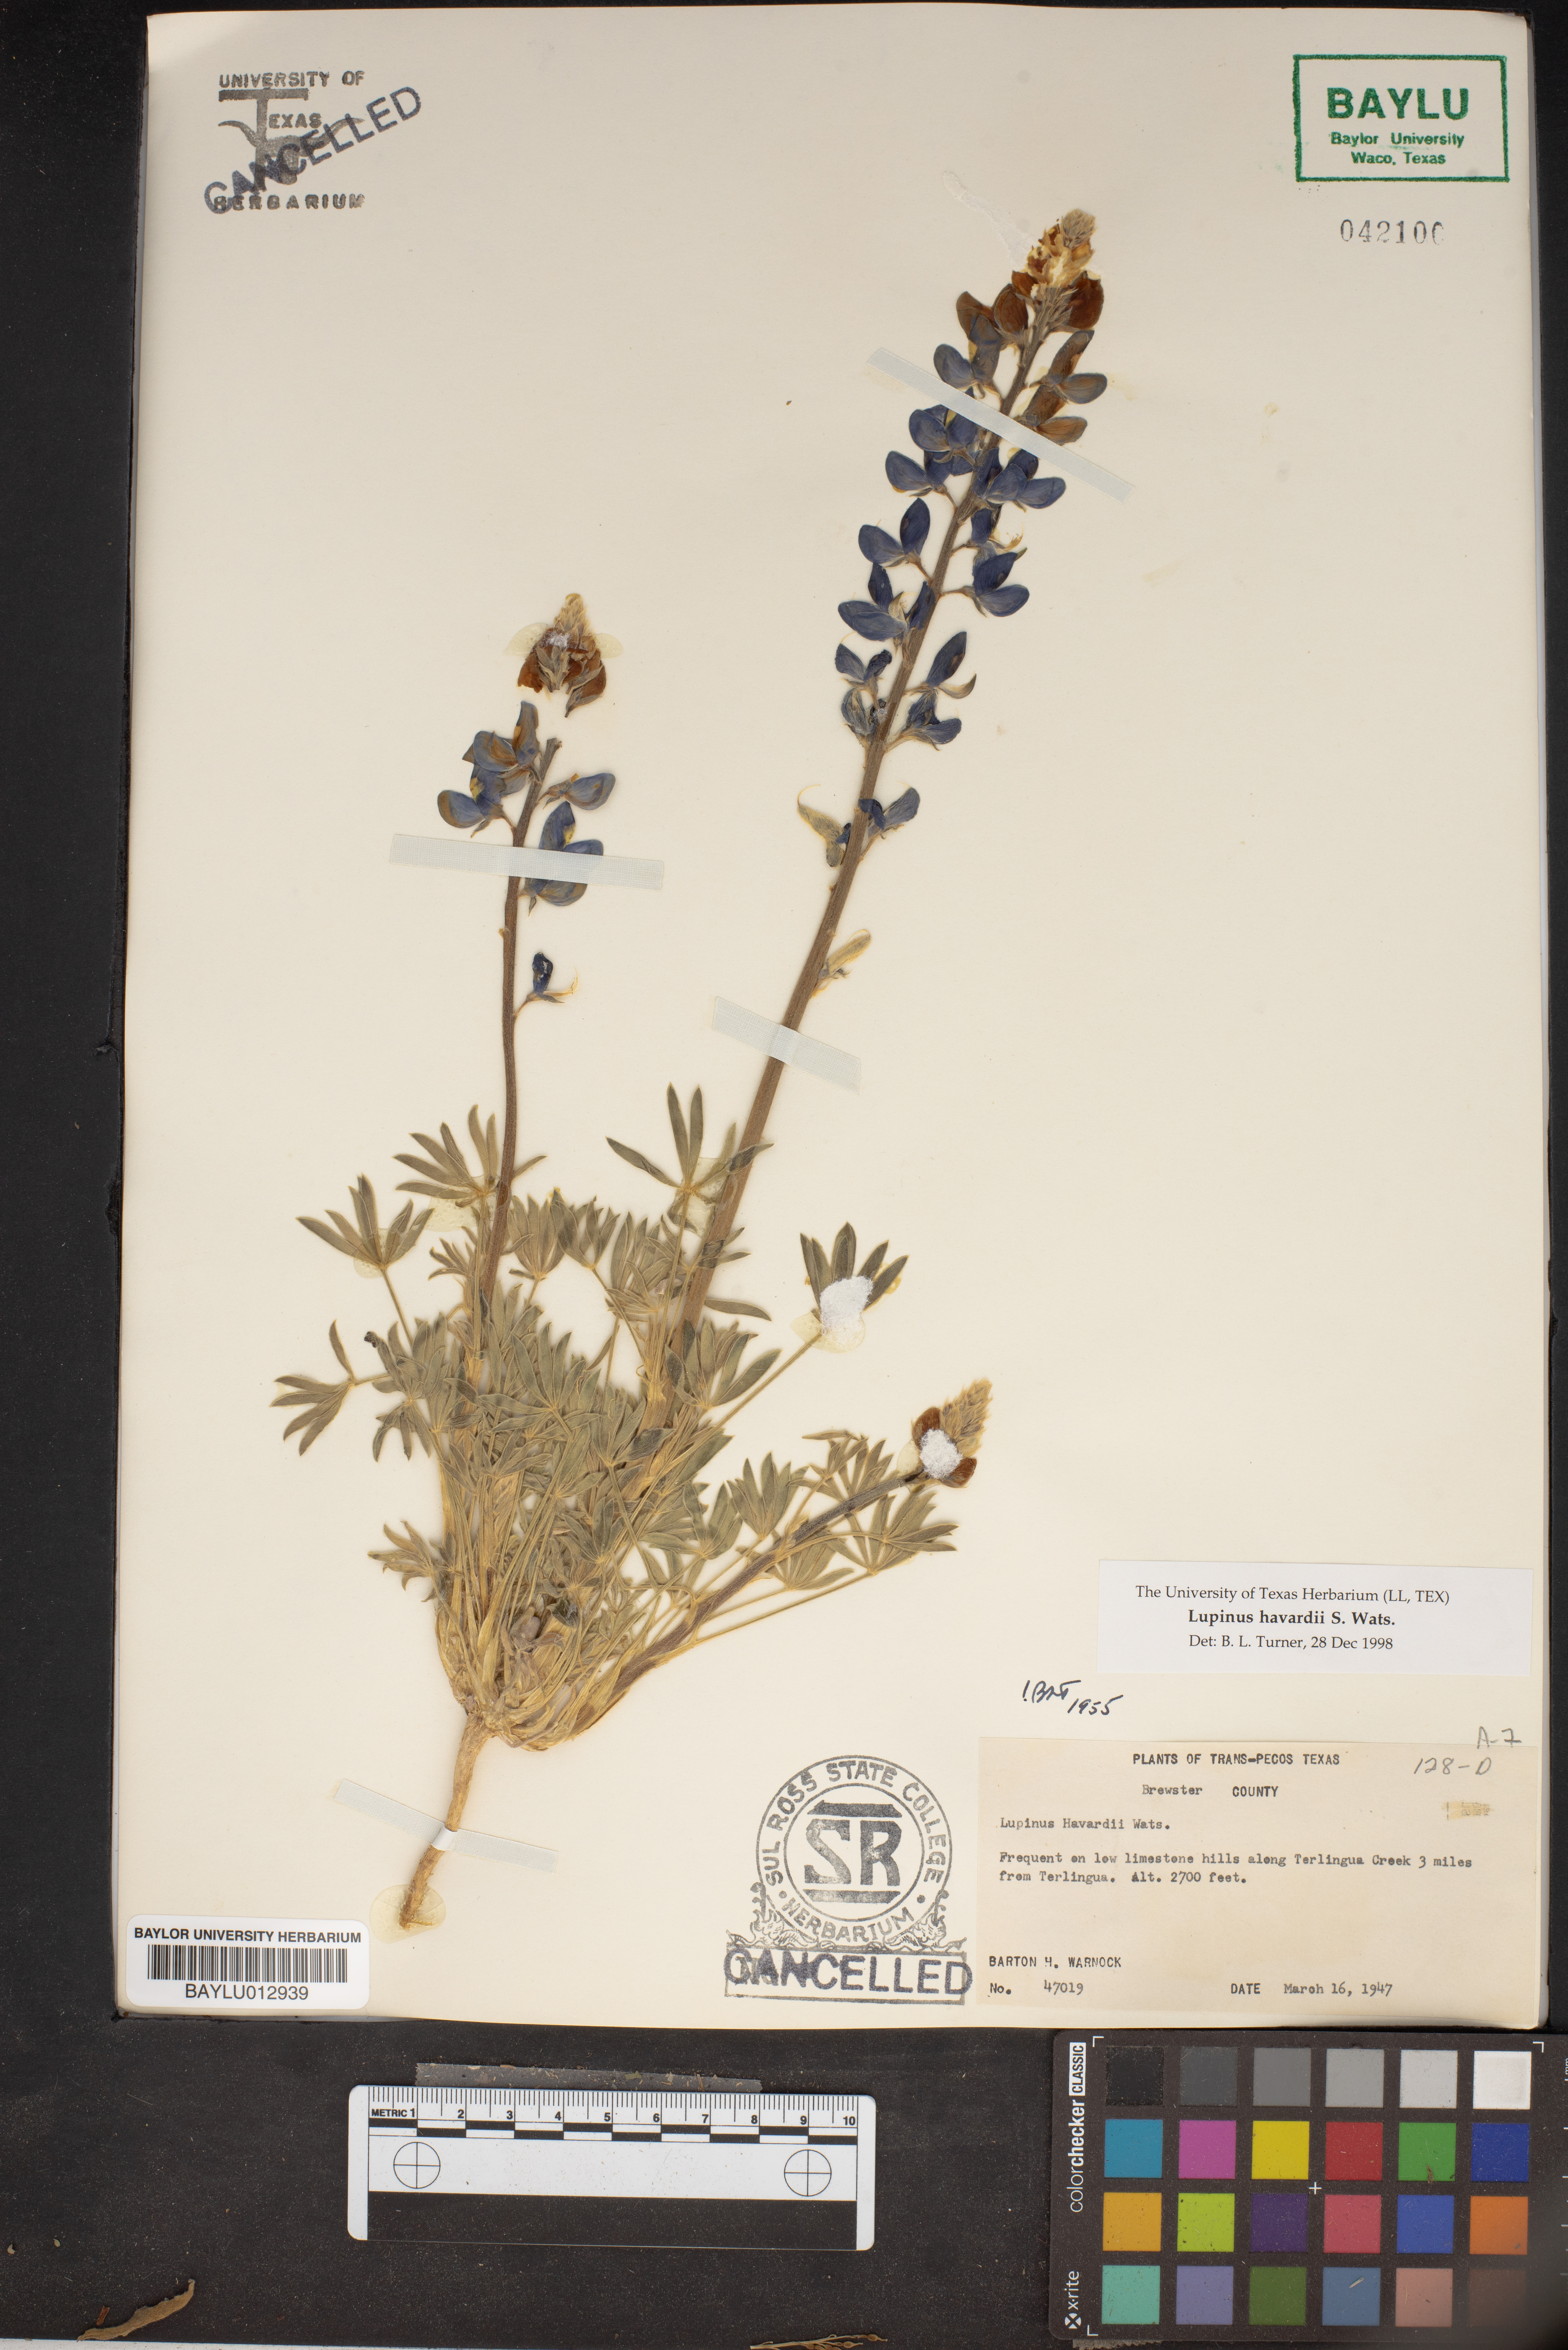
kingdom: Plantae
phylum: Tracheophyta
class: Magnoliopsida
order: Fabales
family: Fabaceae
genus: Lupinus
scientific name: Lupinus havardii
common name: Chisos bluebonnet
